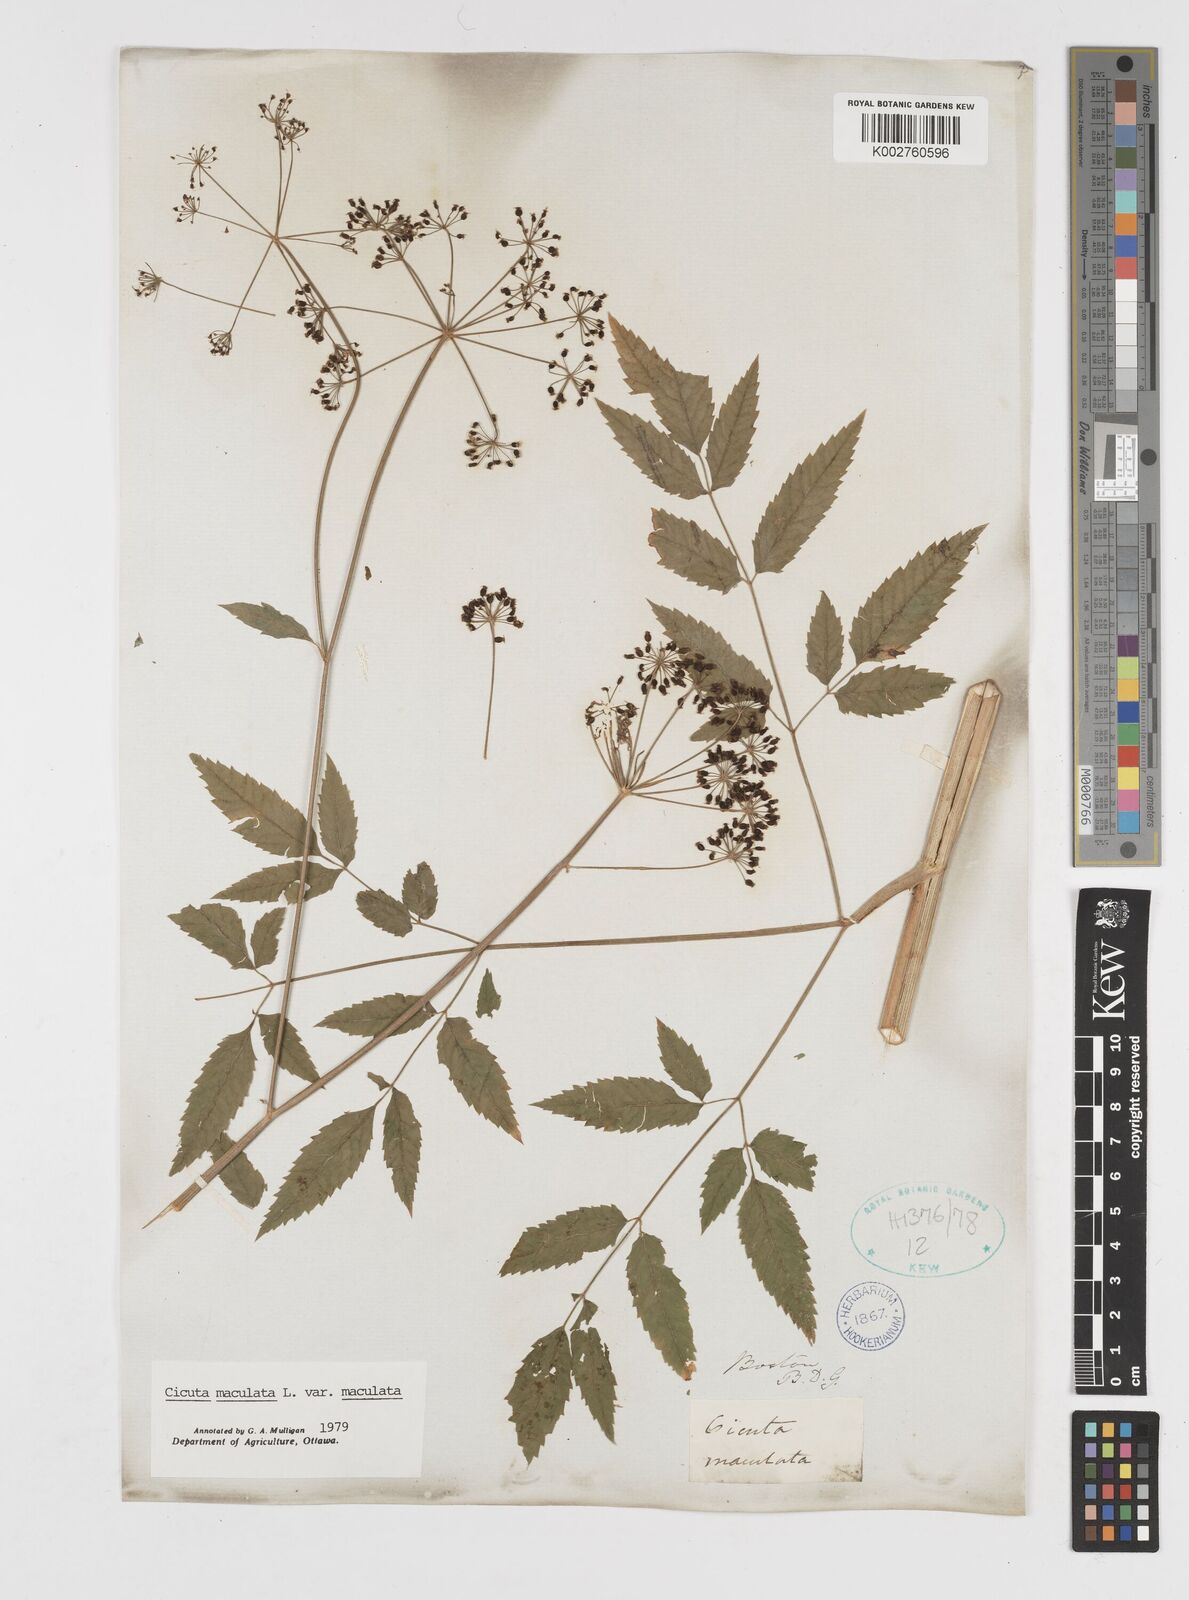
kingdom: Plantae
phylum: Tracheophyta
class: Magnoliopsida
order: Apiales
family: Apiaceae
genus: Cicuta
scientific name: Cicuta maculata
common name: Spotted cowbane
